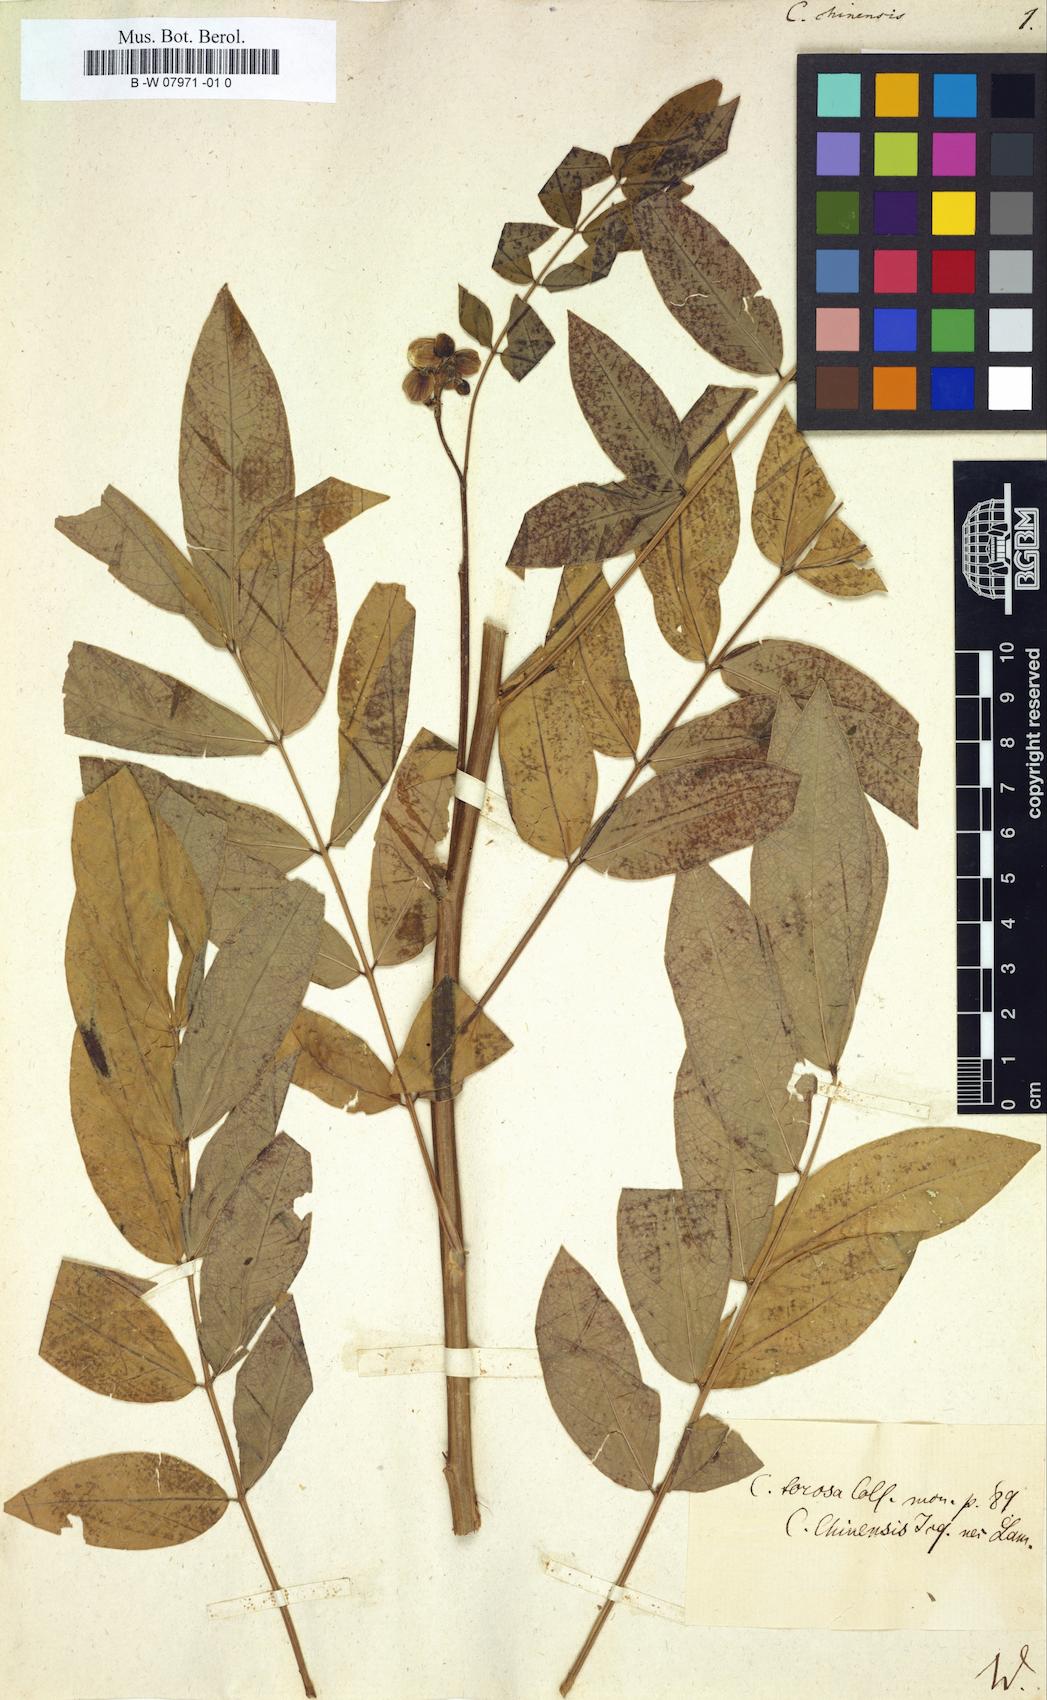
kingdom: Plantae
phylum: Tracheophyta
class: Magnoliopsida
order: Fabales
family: Fabaceae
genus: Senna
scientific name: Senna
